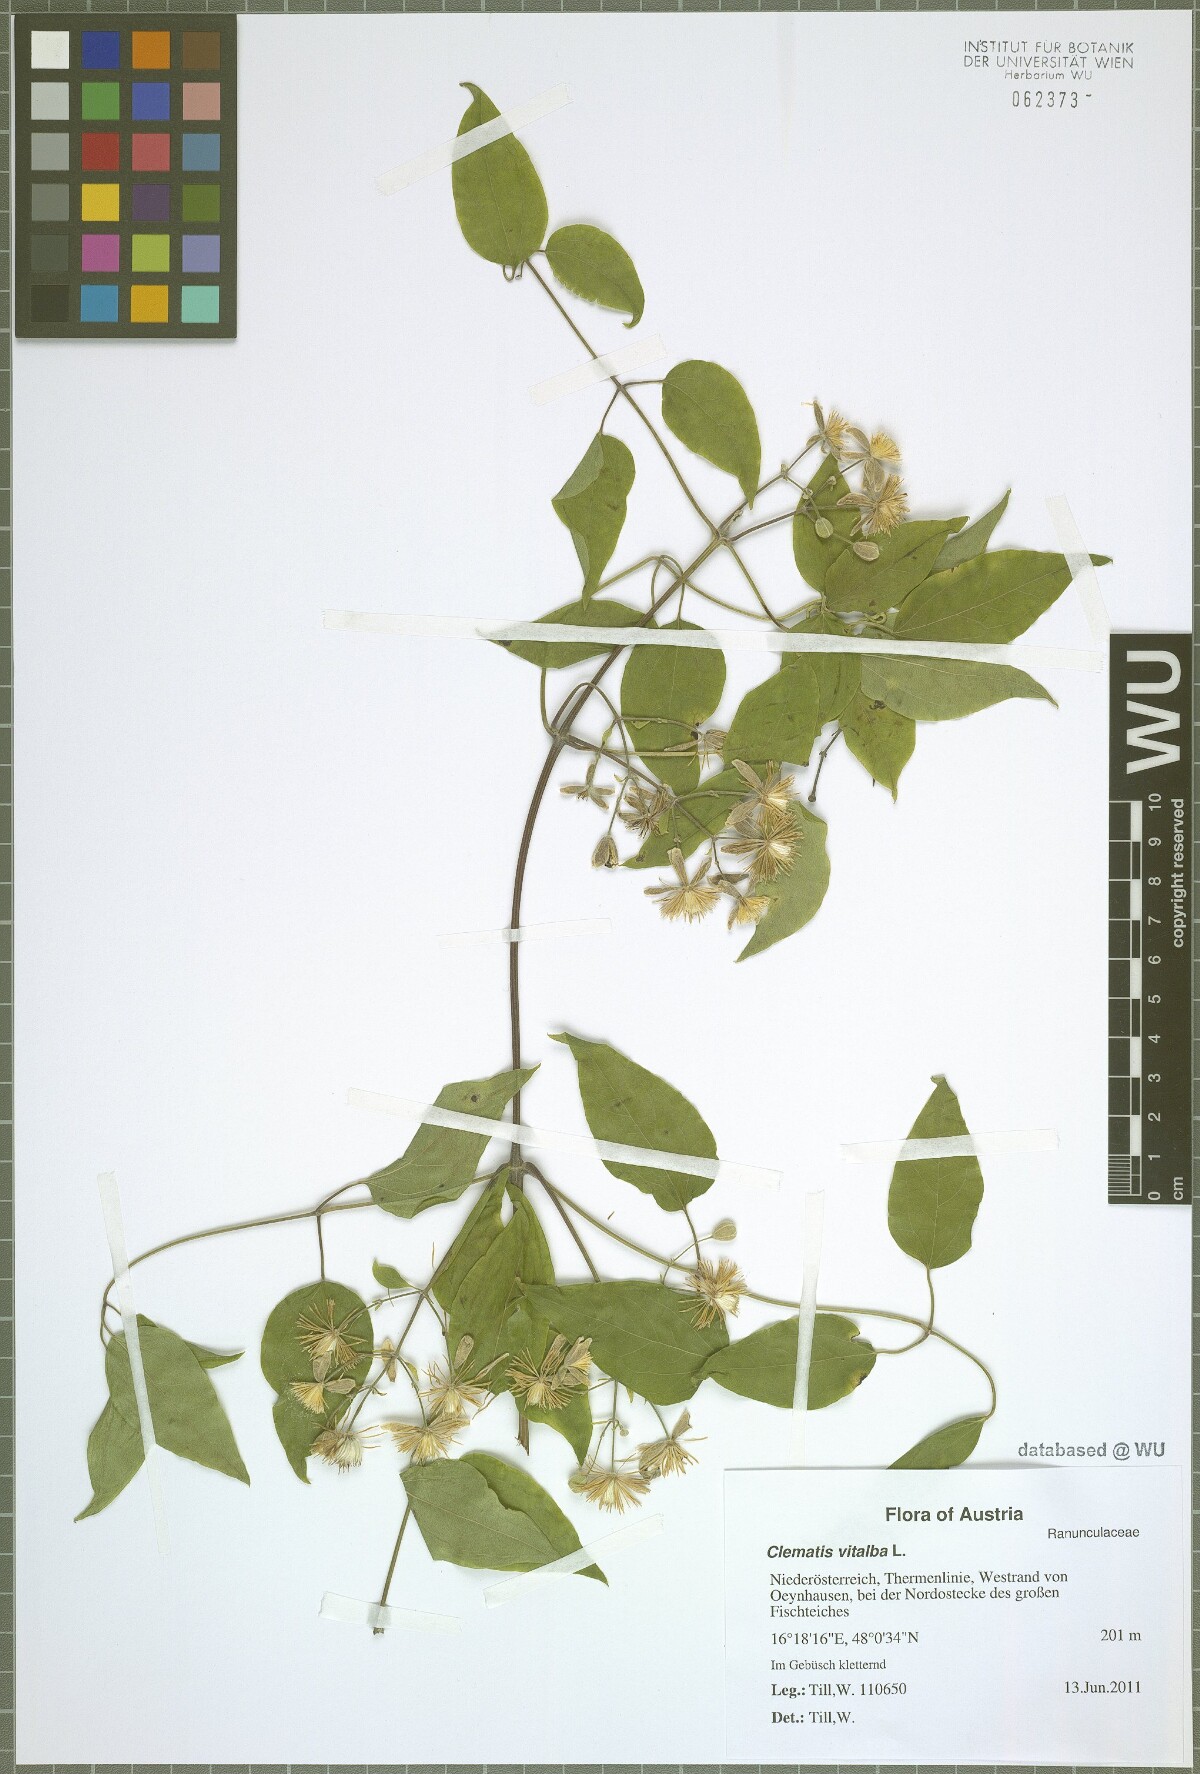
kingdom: Plantae
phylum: Tracheophyta
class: Magnoliopsida
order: Ranunculales
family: Ranunculaceae
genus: Clematis
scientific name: Clematis vitalba
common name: Evergreen clematis
